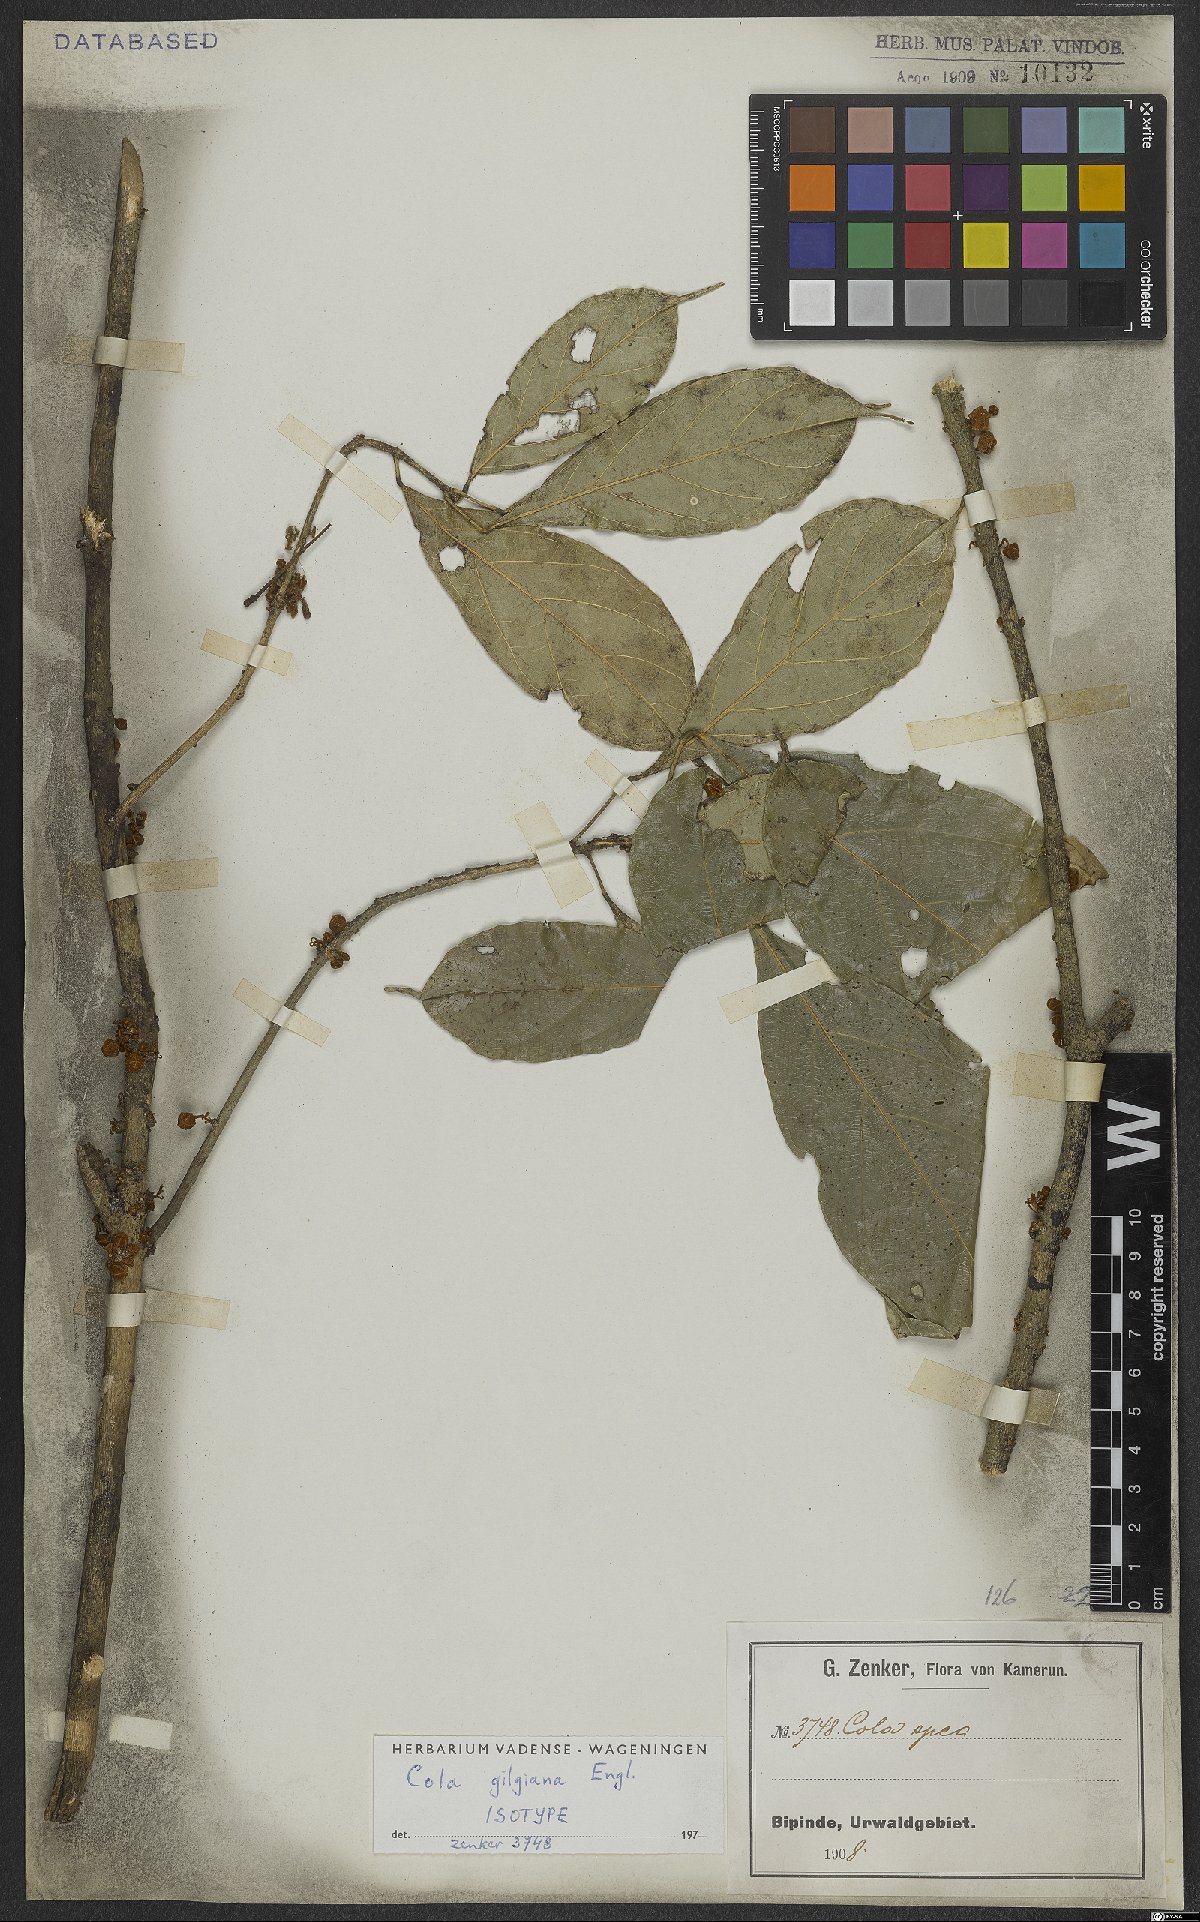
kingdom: Plantae
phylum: Tracheophyta
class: Magnoliopsida
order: Malvales
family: Malvaceae
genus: Cola
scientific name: Cola flavovelutina
